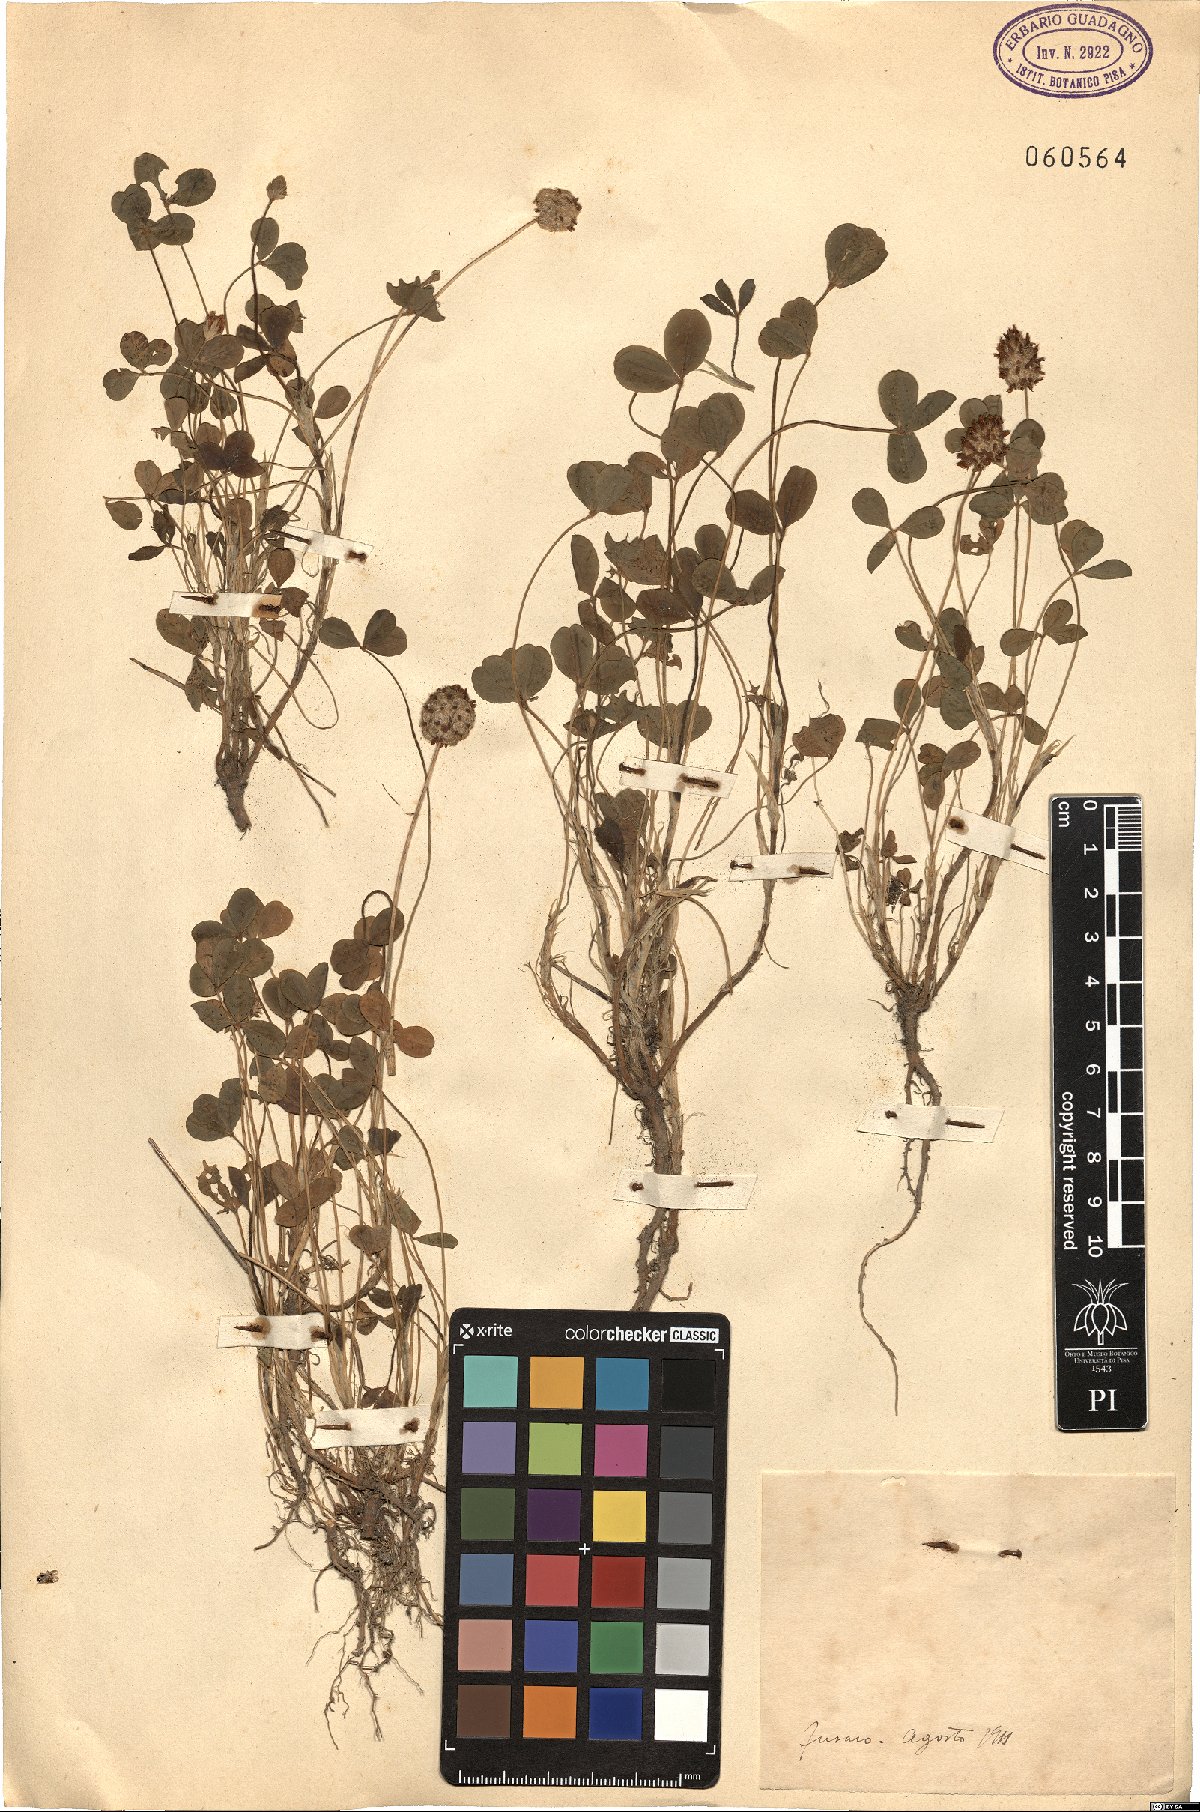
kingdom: Plantae
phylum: Tracheophyta
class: Magnoliopsida
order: Fabales
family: Fabaceae
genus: Trifolium
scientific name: Trifolium
